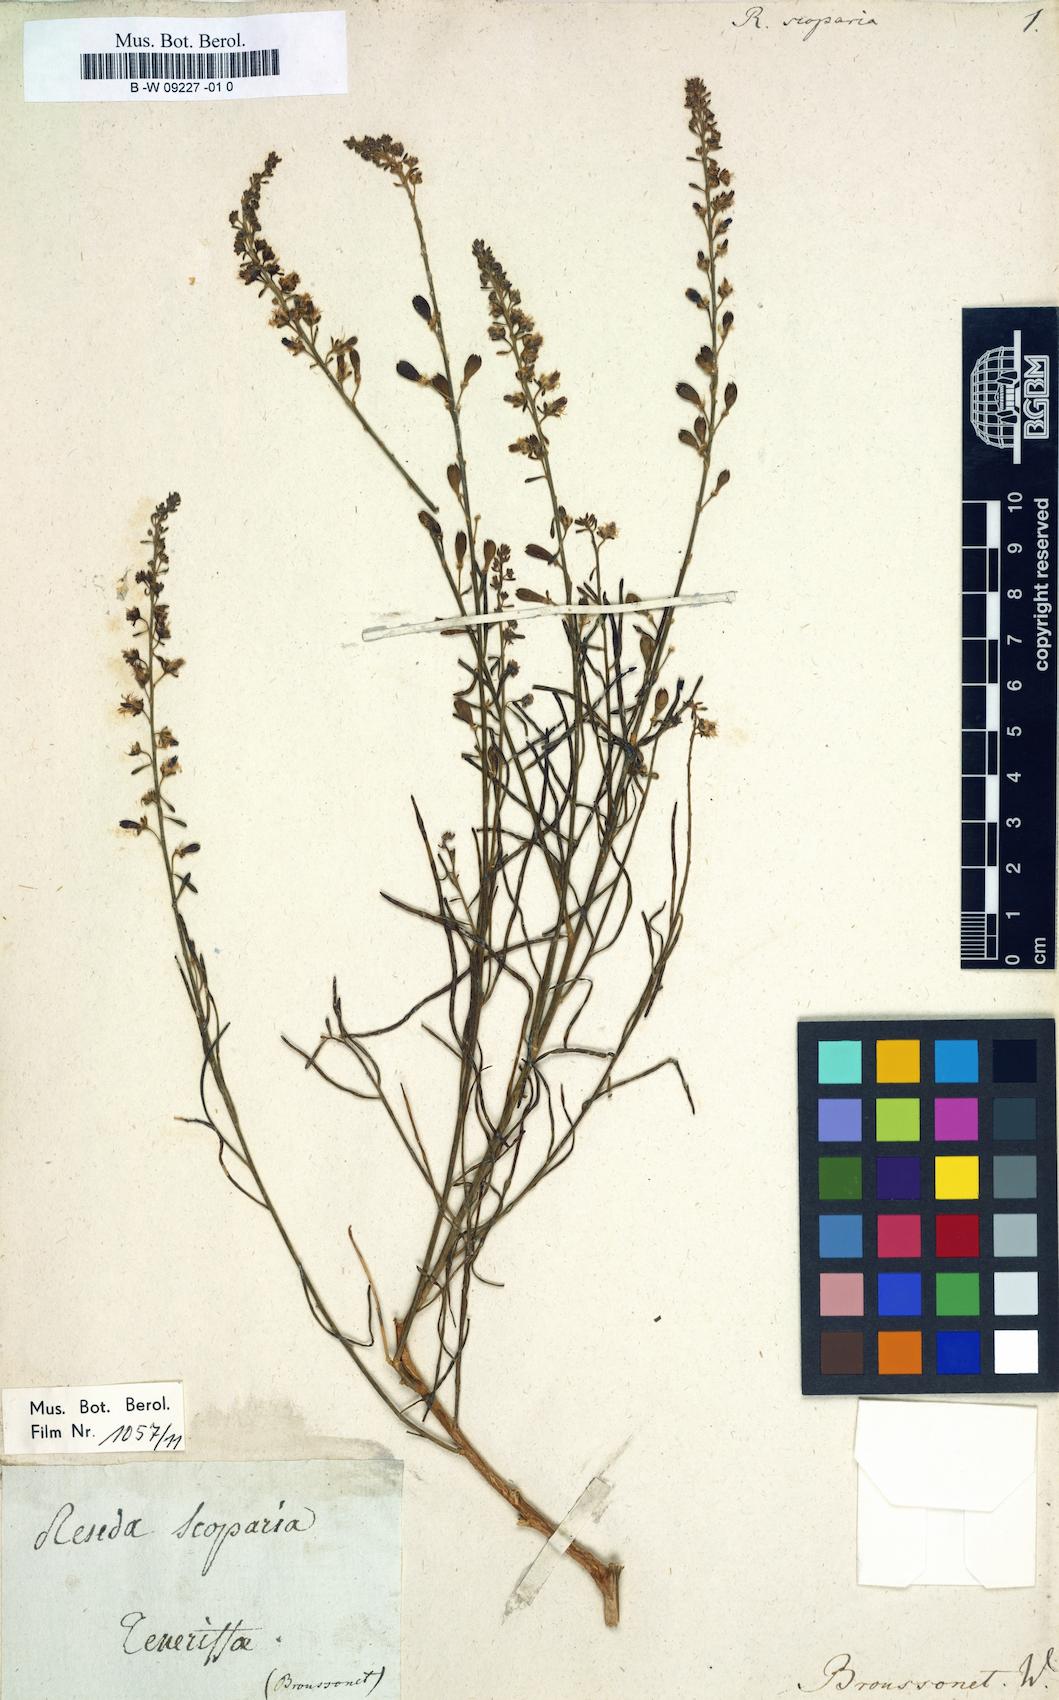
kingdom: Plantae
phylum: Tracheophyta
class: Magnoliopsida
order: Brassicales
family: Resedaceae
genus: Reseda
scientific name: Reseda scoparia
